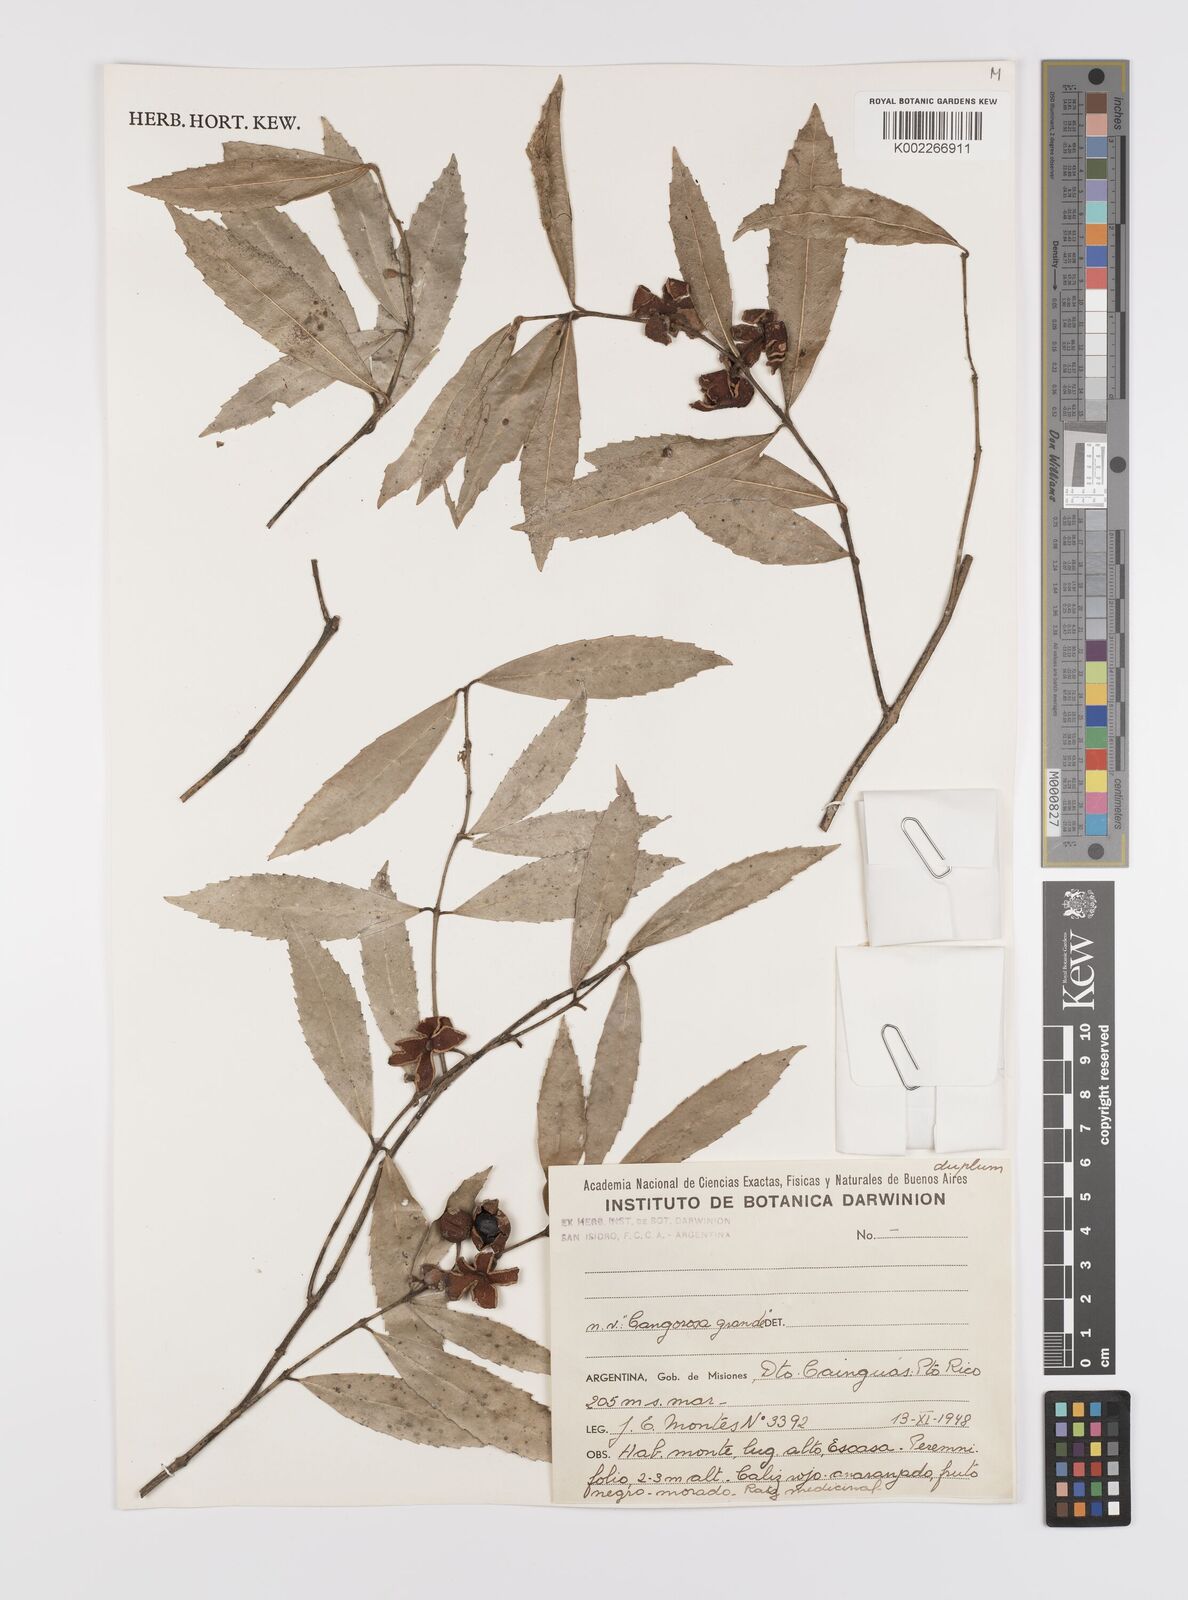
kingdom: Plantae
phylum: Tracheophyta
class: Magnoliopsida
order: Celastrales
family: Celastraceae
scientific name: Celastraceae
